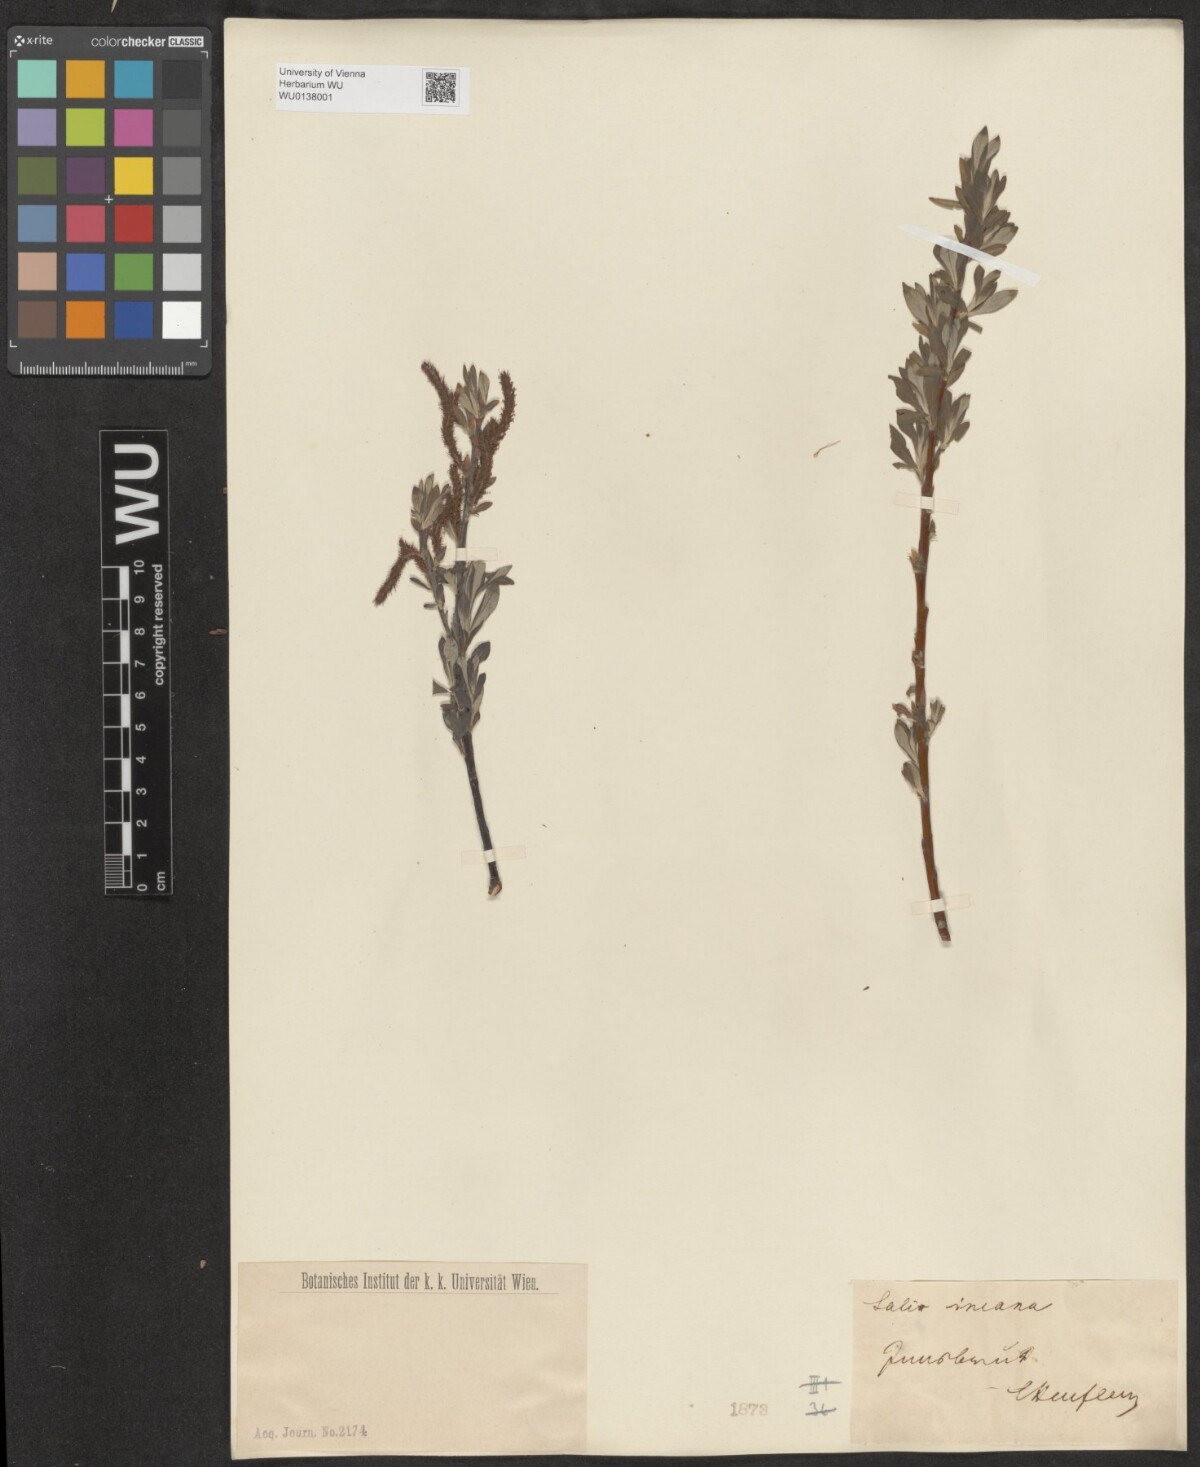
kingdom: Plantae
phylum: Tracheophyta
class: Magnoliopsida
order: Malpighiales
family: Salicaceae
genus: Salix
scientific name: Salix eleagnos
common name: Elaeagnus willow
